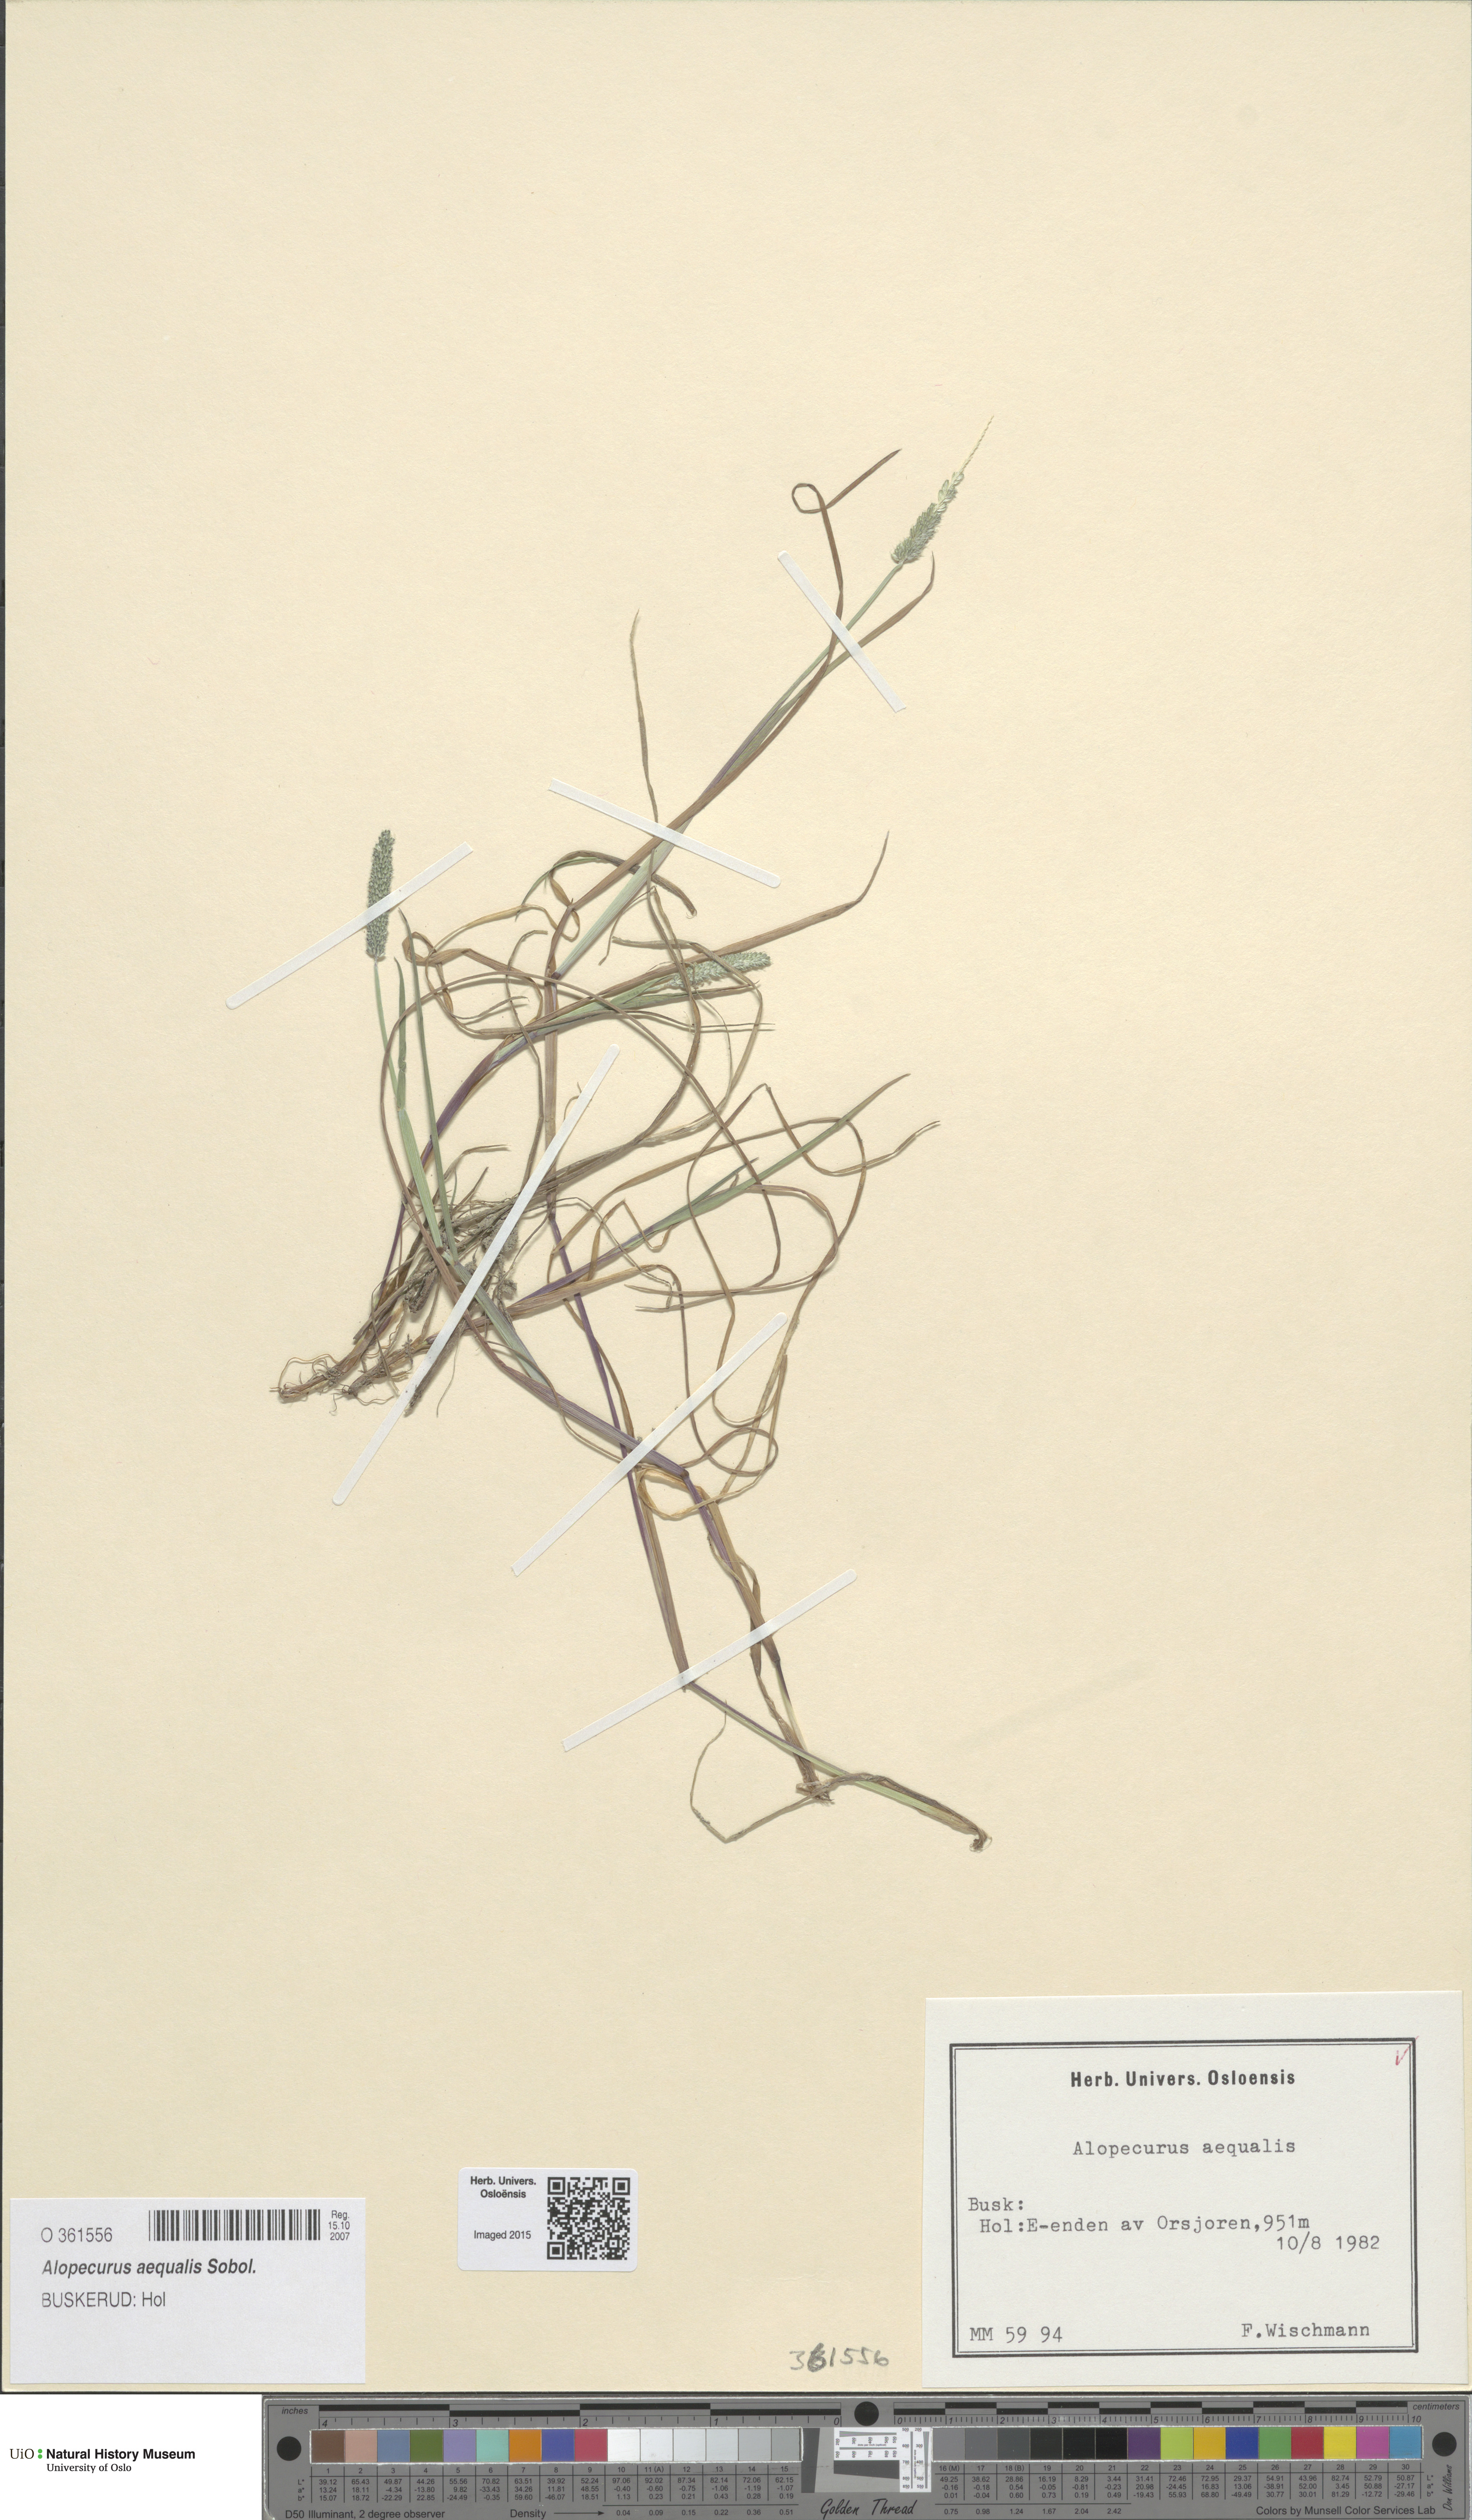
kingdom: Plantae
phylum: Tracheophyta
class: Liliopsida
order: Poales
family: Poaceae
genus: Alopecurus
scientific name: Alopecurus aequalis
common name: Orange foxtail
